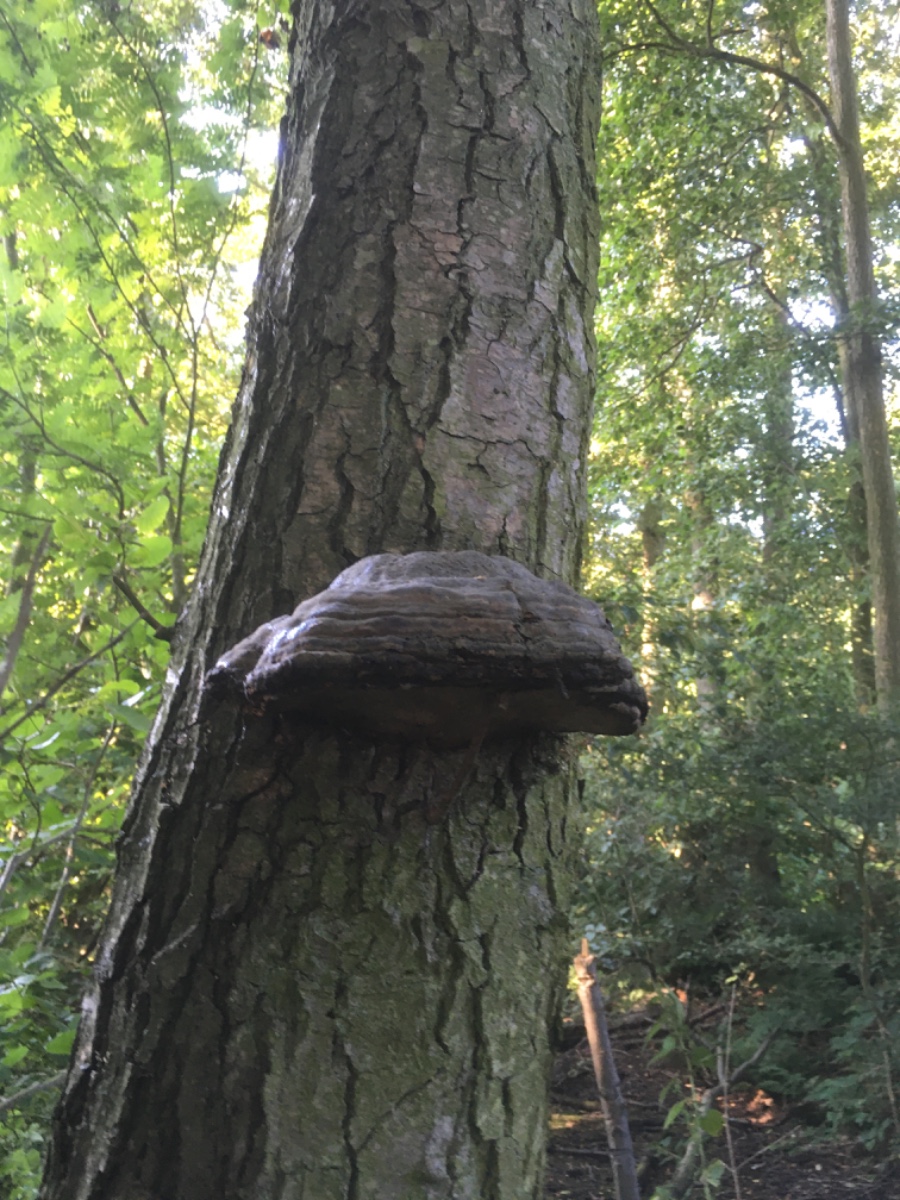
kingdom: Fungi
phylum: Basidiomycota
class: Agaricomycetes
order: Polyporales
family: Polyporaceae
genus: Fomes
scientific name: Fomes fomentarius
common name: tøndersvamp
